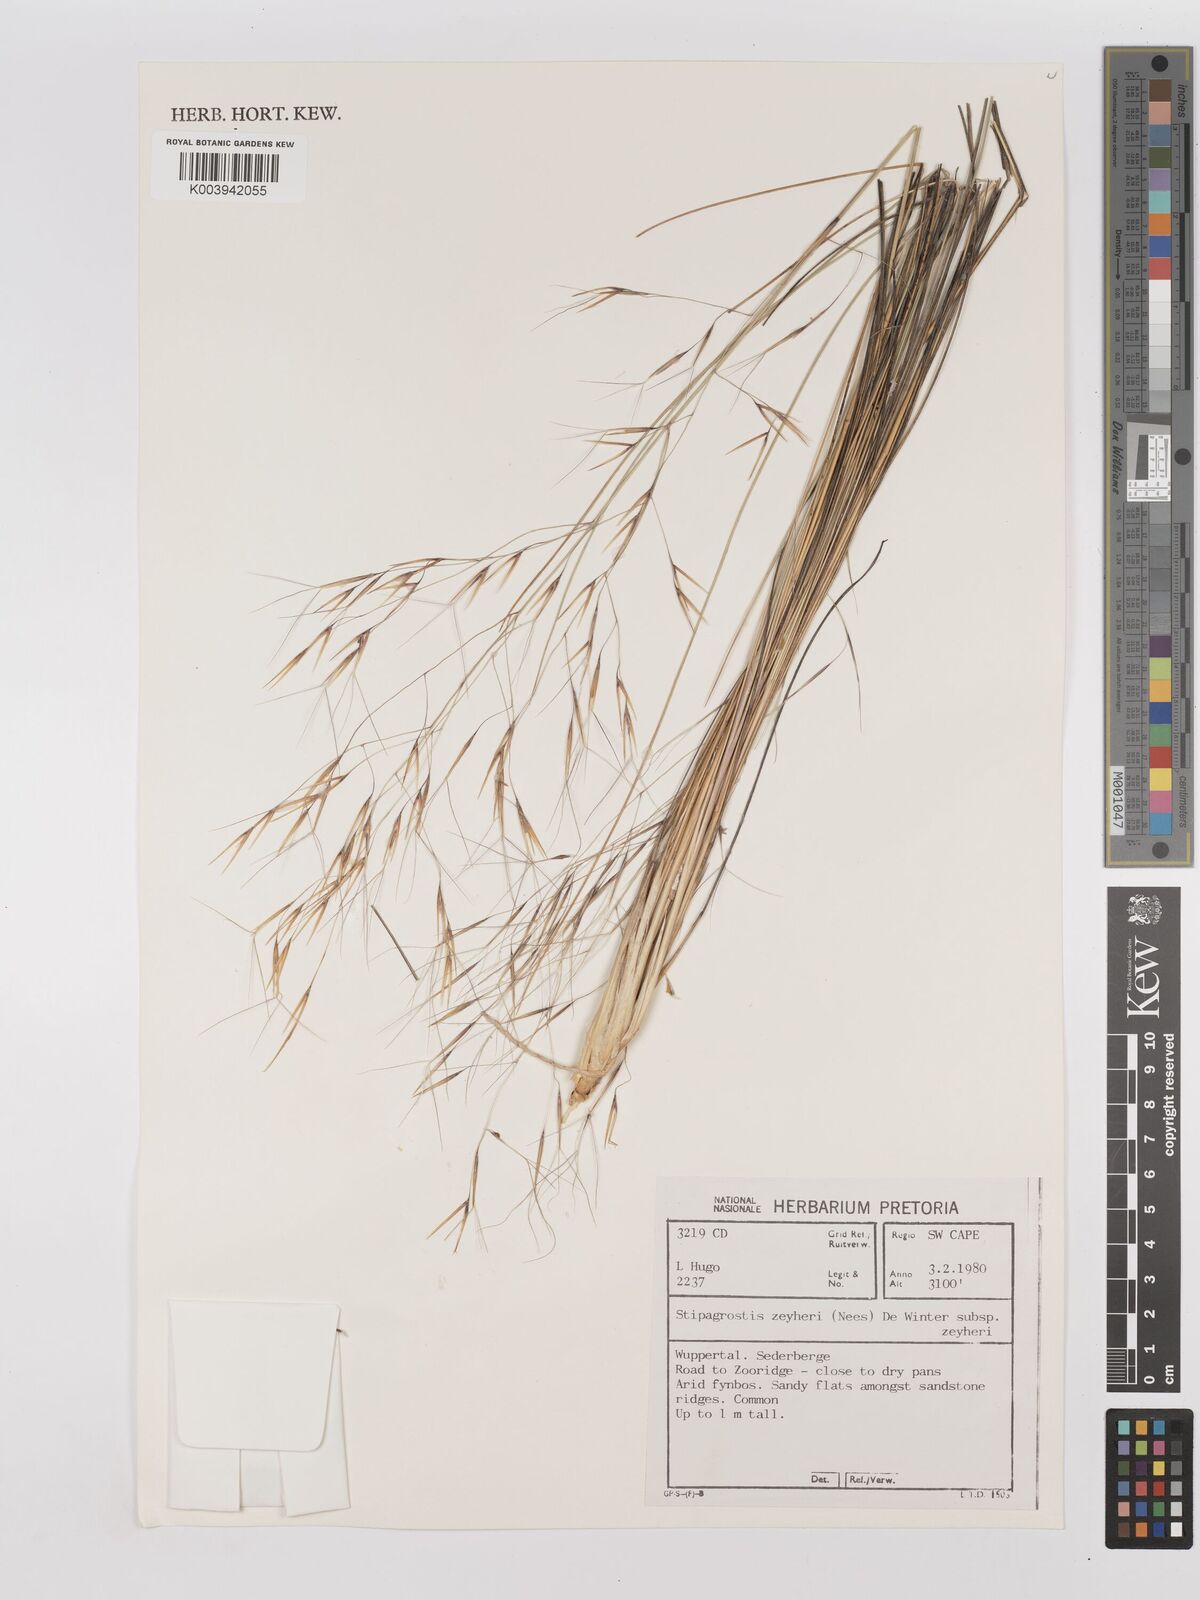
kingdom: Plantae
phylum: Tracheophyta
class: Liliopsida
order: Poales
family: Poaceae
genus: Stipagrostis
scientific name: Stipagrostis zeyheri
